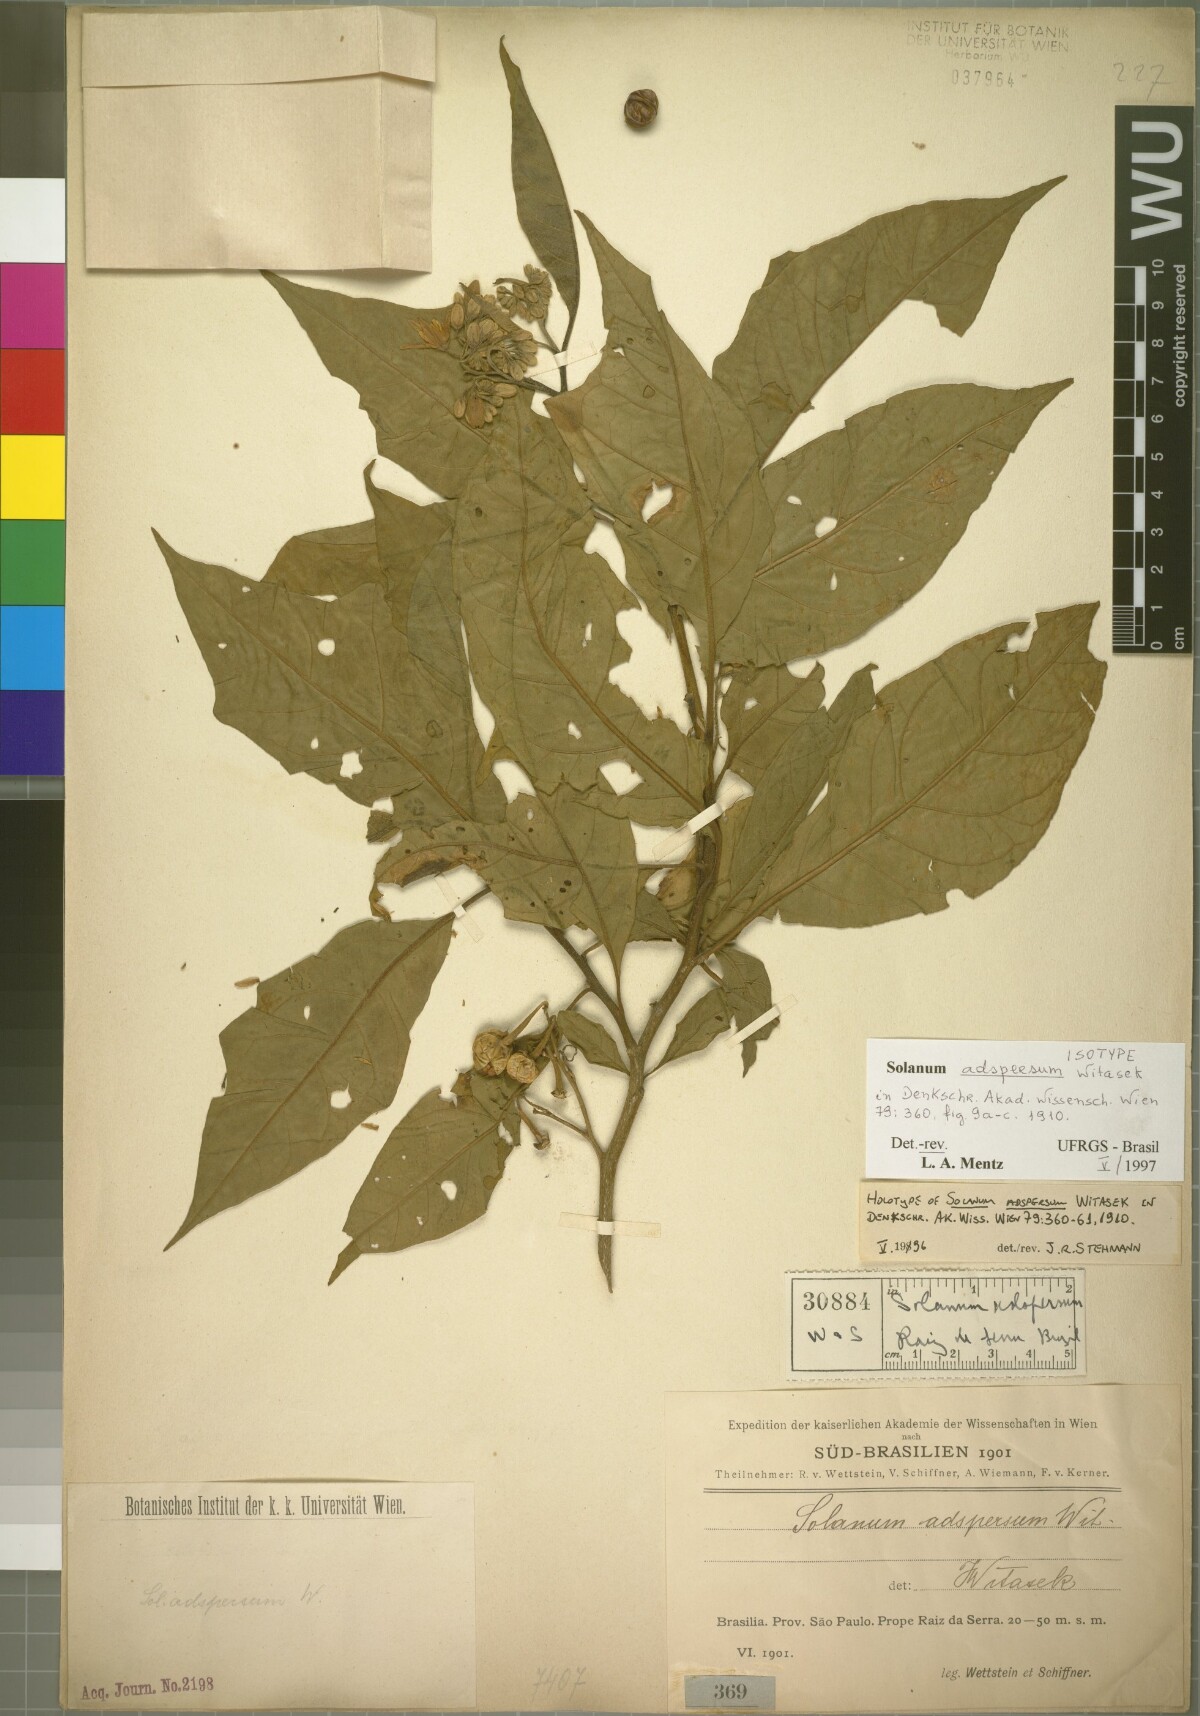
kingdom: Plantae
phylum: Tracheophyta
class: Magnoliopsida
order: Solanales
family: Solanaceae
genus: Solanum
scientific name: Solanum adspersum
